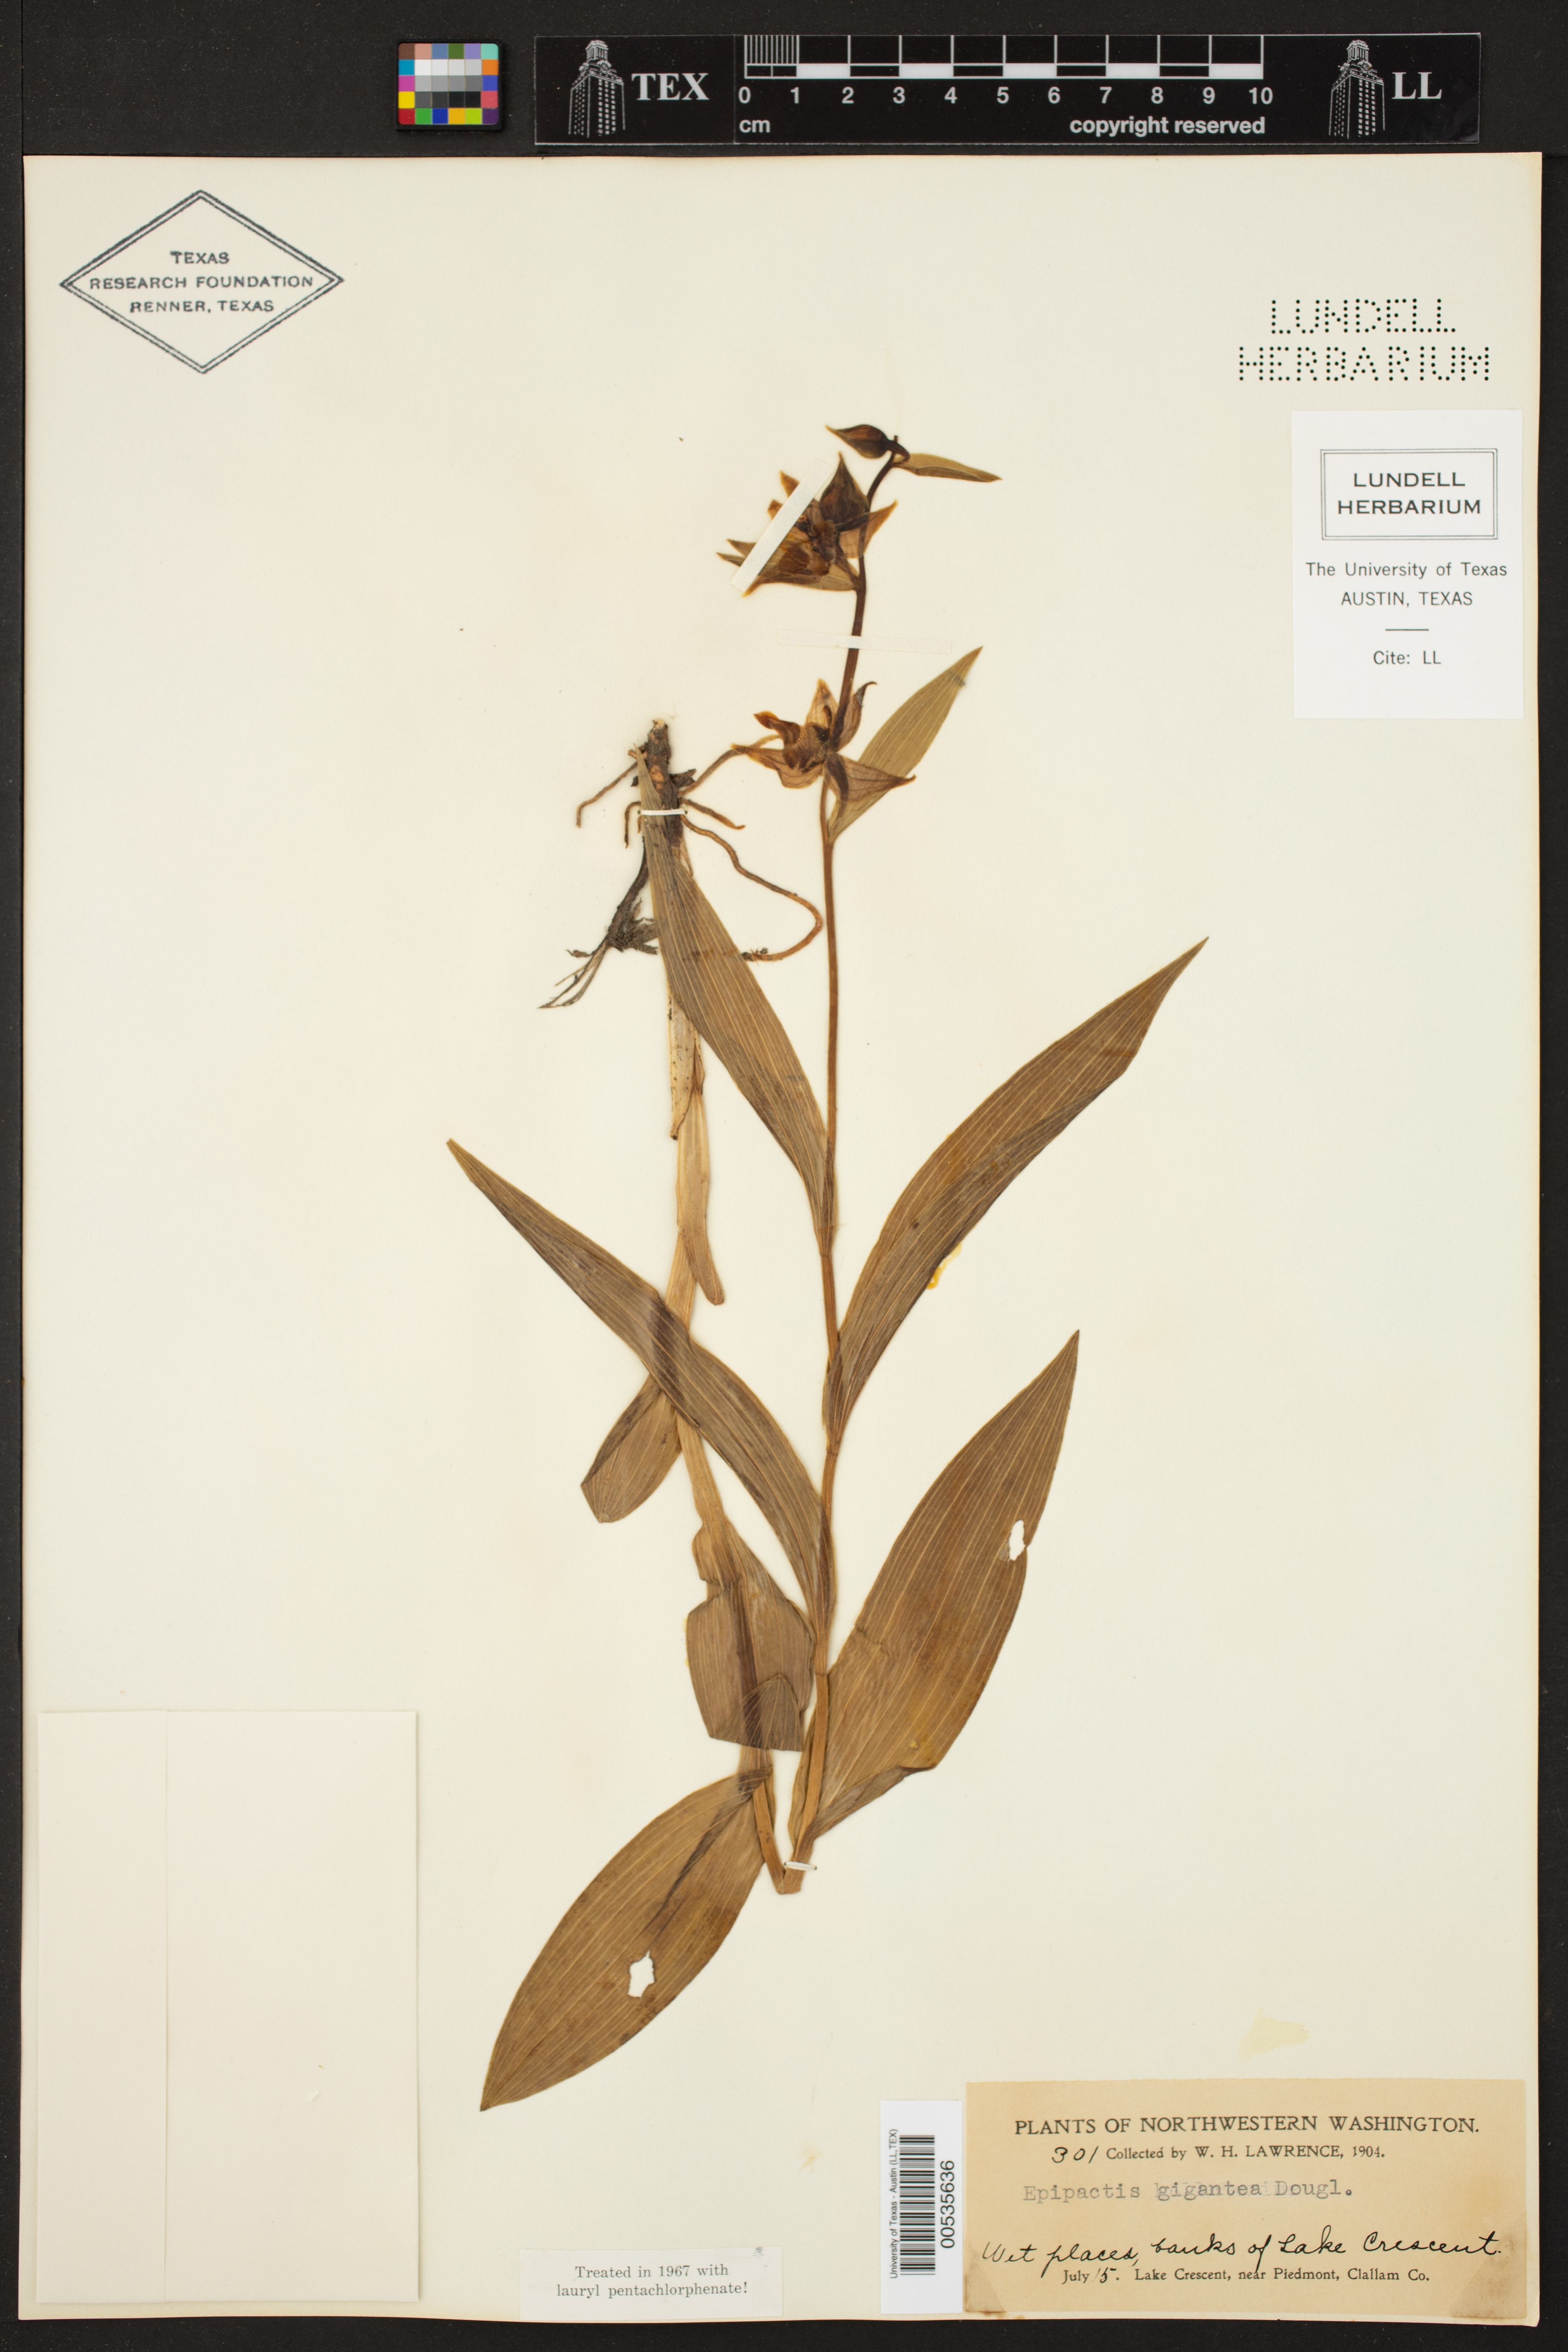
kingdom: Plantae
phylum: Tracheophyta
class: Liliopsida
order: Asparagales
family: Orchidaceae
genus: Epipactis
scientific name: Epipactis gigantea
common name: Chatterbox
